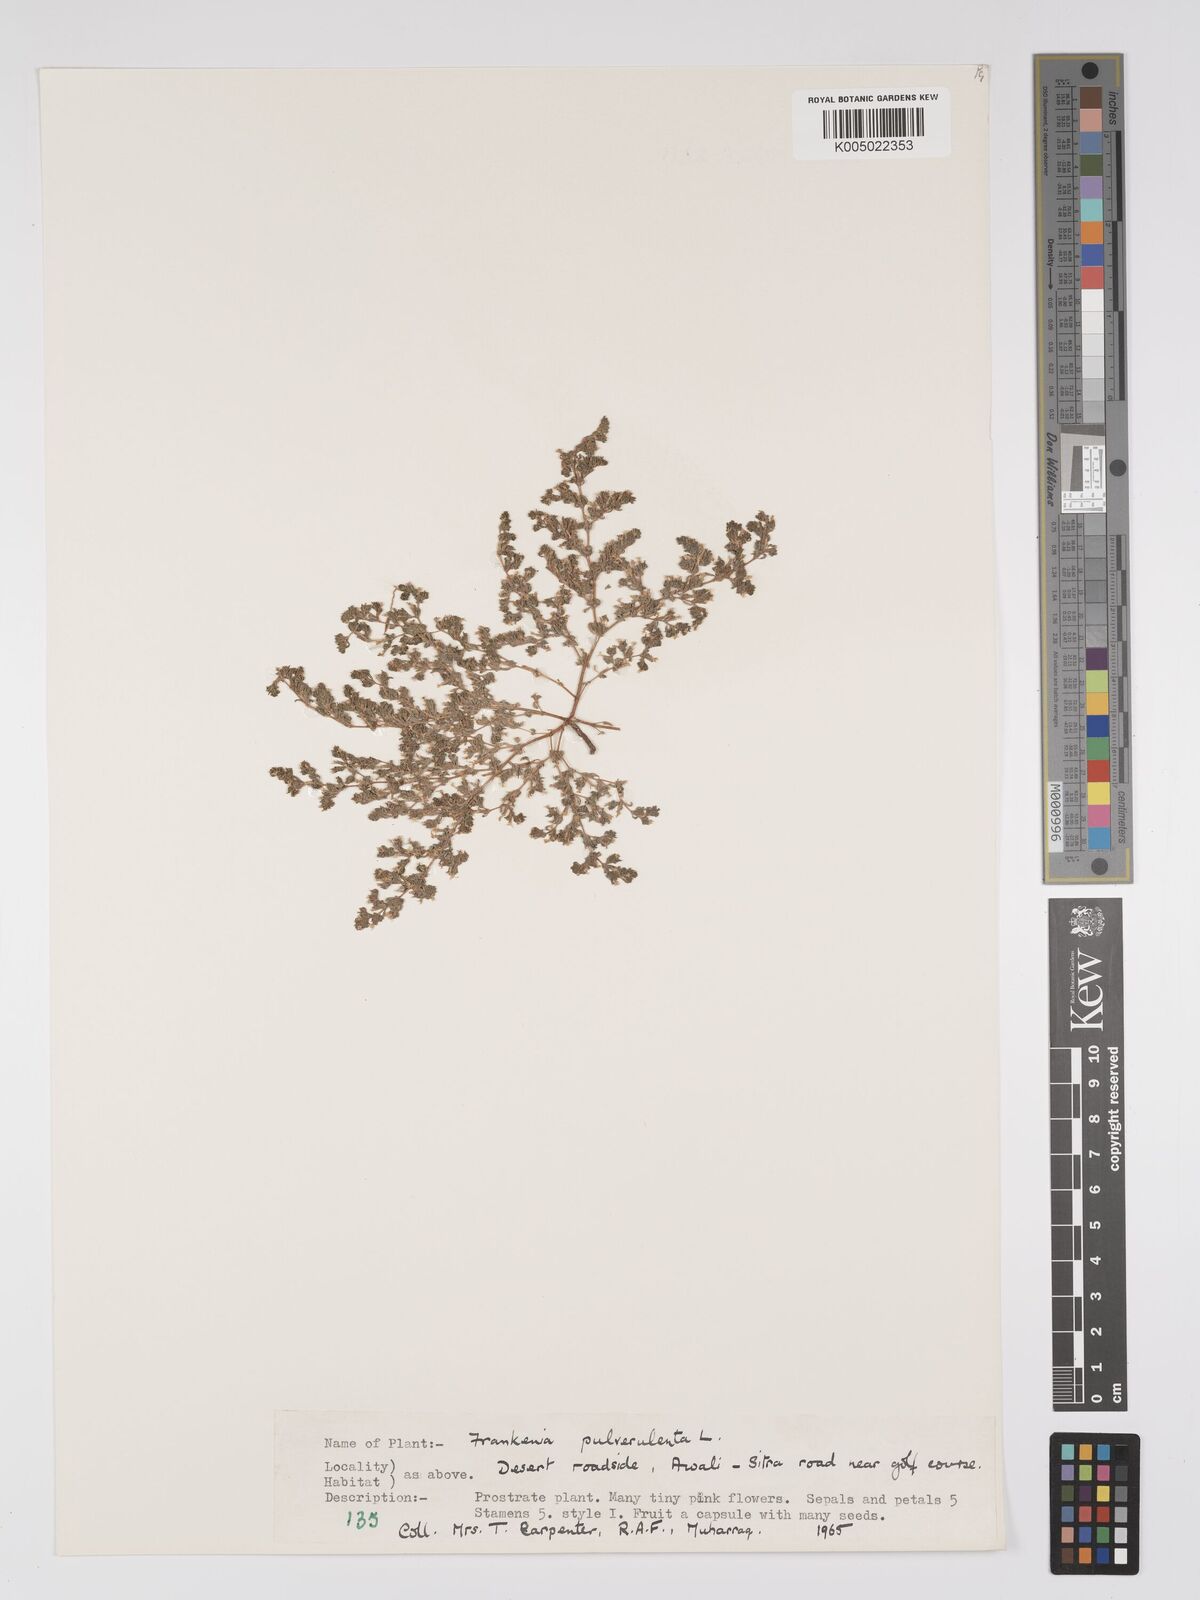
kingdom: Plantae
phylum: Tracheophyta
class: Magnoliopsida
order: Caryophyllales
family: Frankeniaceae
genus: Frankenia
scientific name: Frankenia pulverulenta
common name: European seaheath
